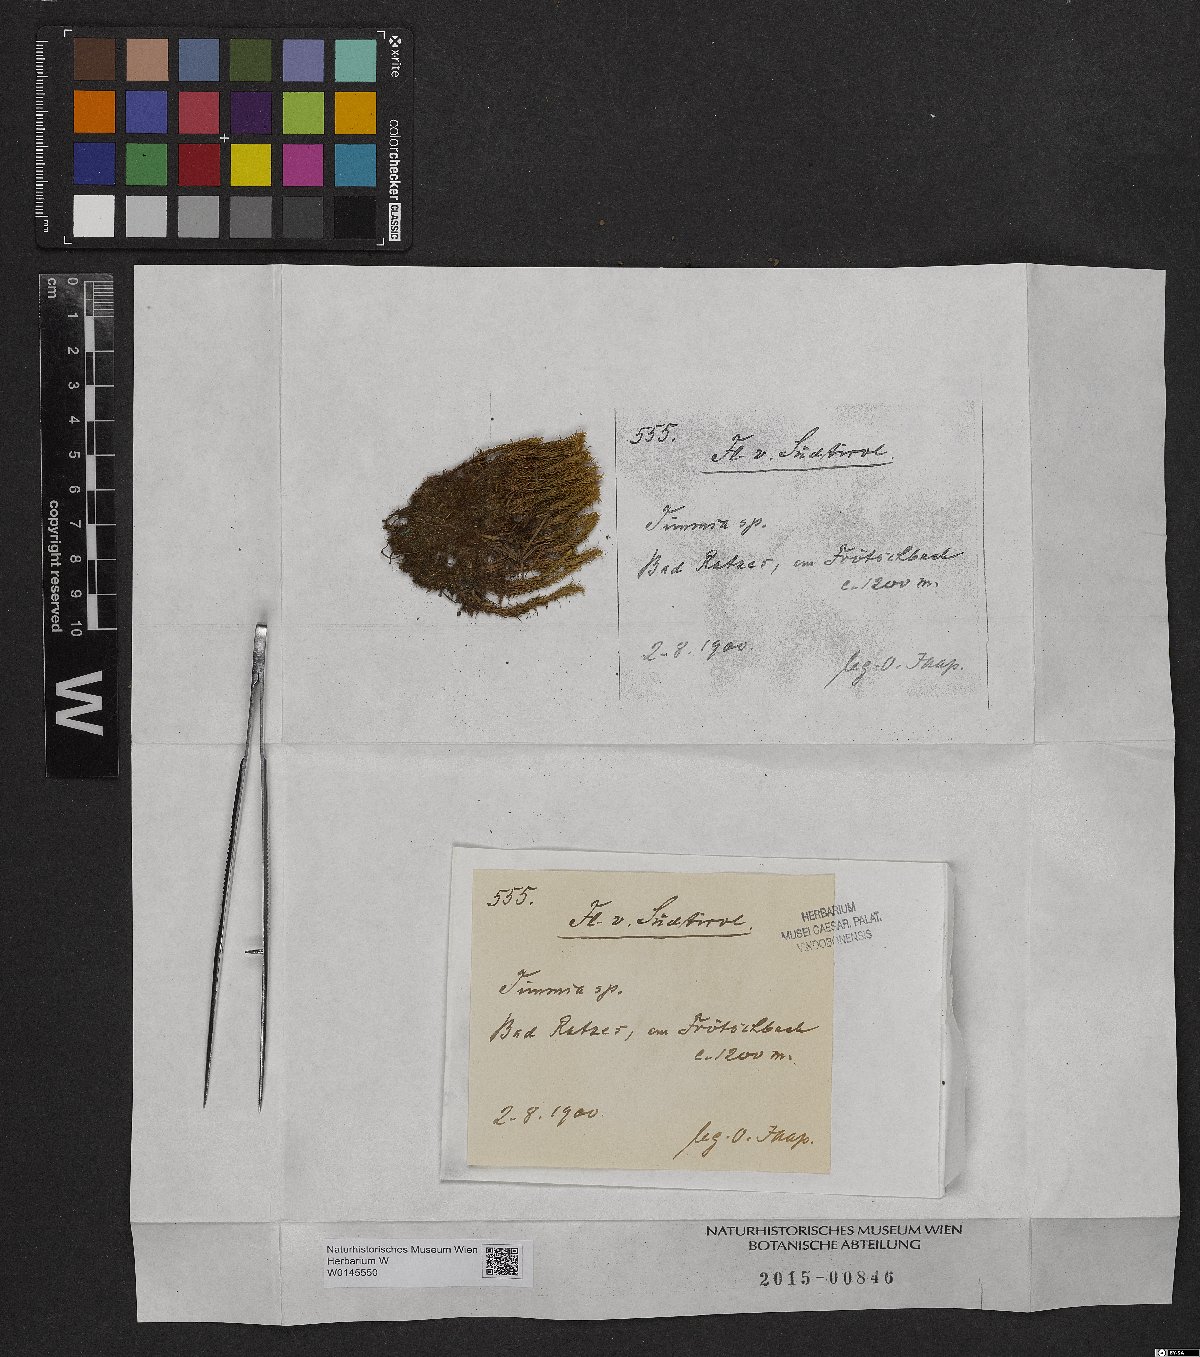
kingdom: Plantae
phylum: Bryophyta
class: Bryopsida
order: Timmiales
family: Timmiaceae
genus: Timmia
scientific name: Timmia
